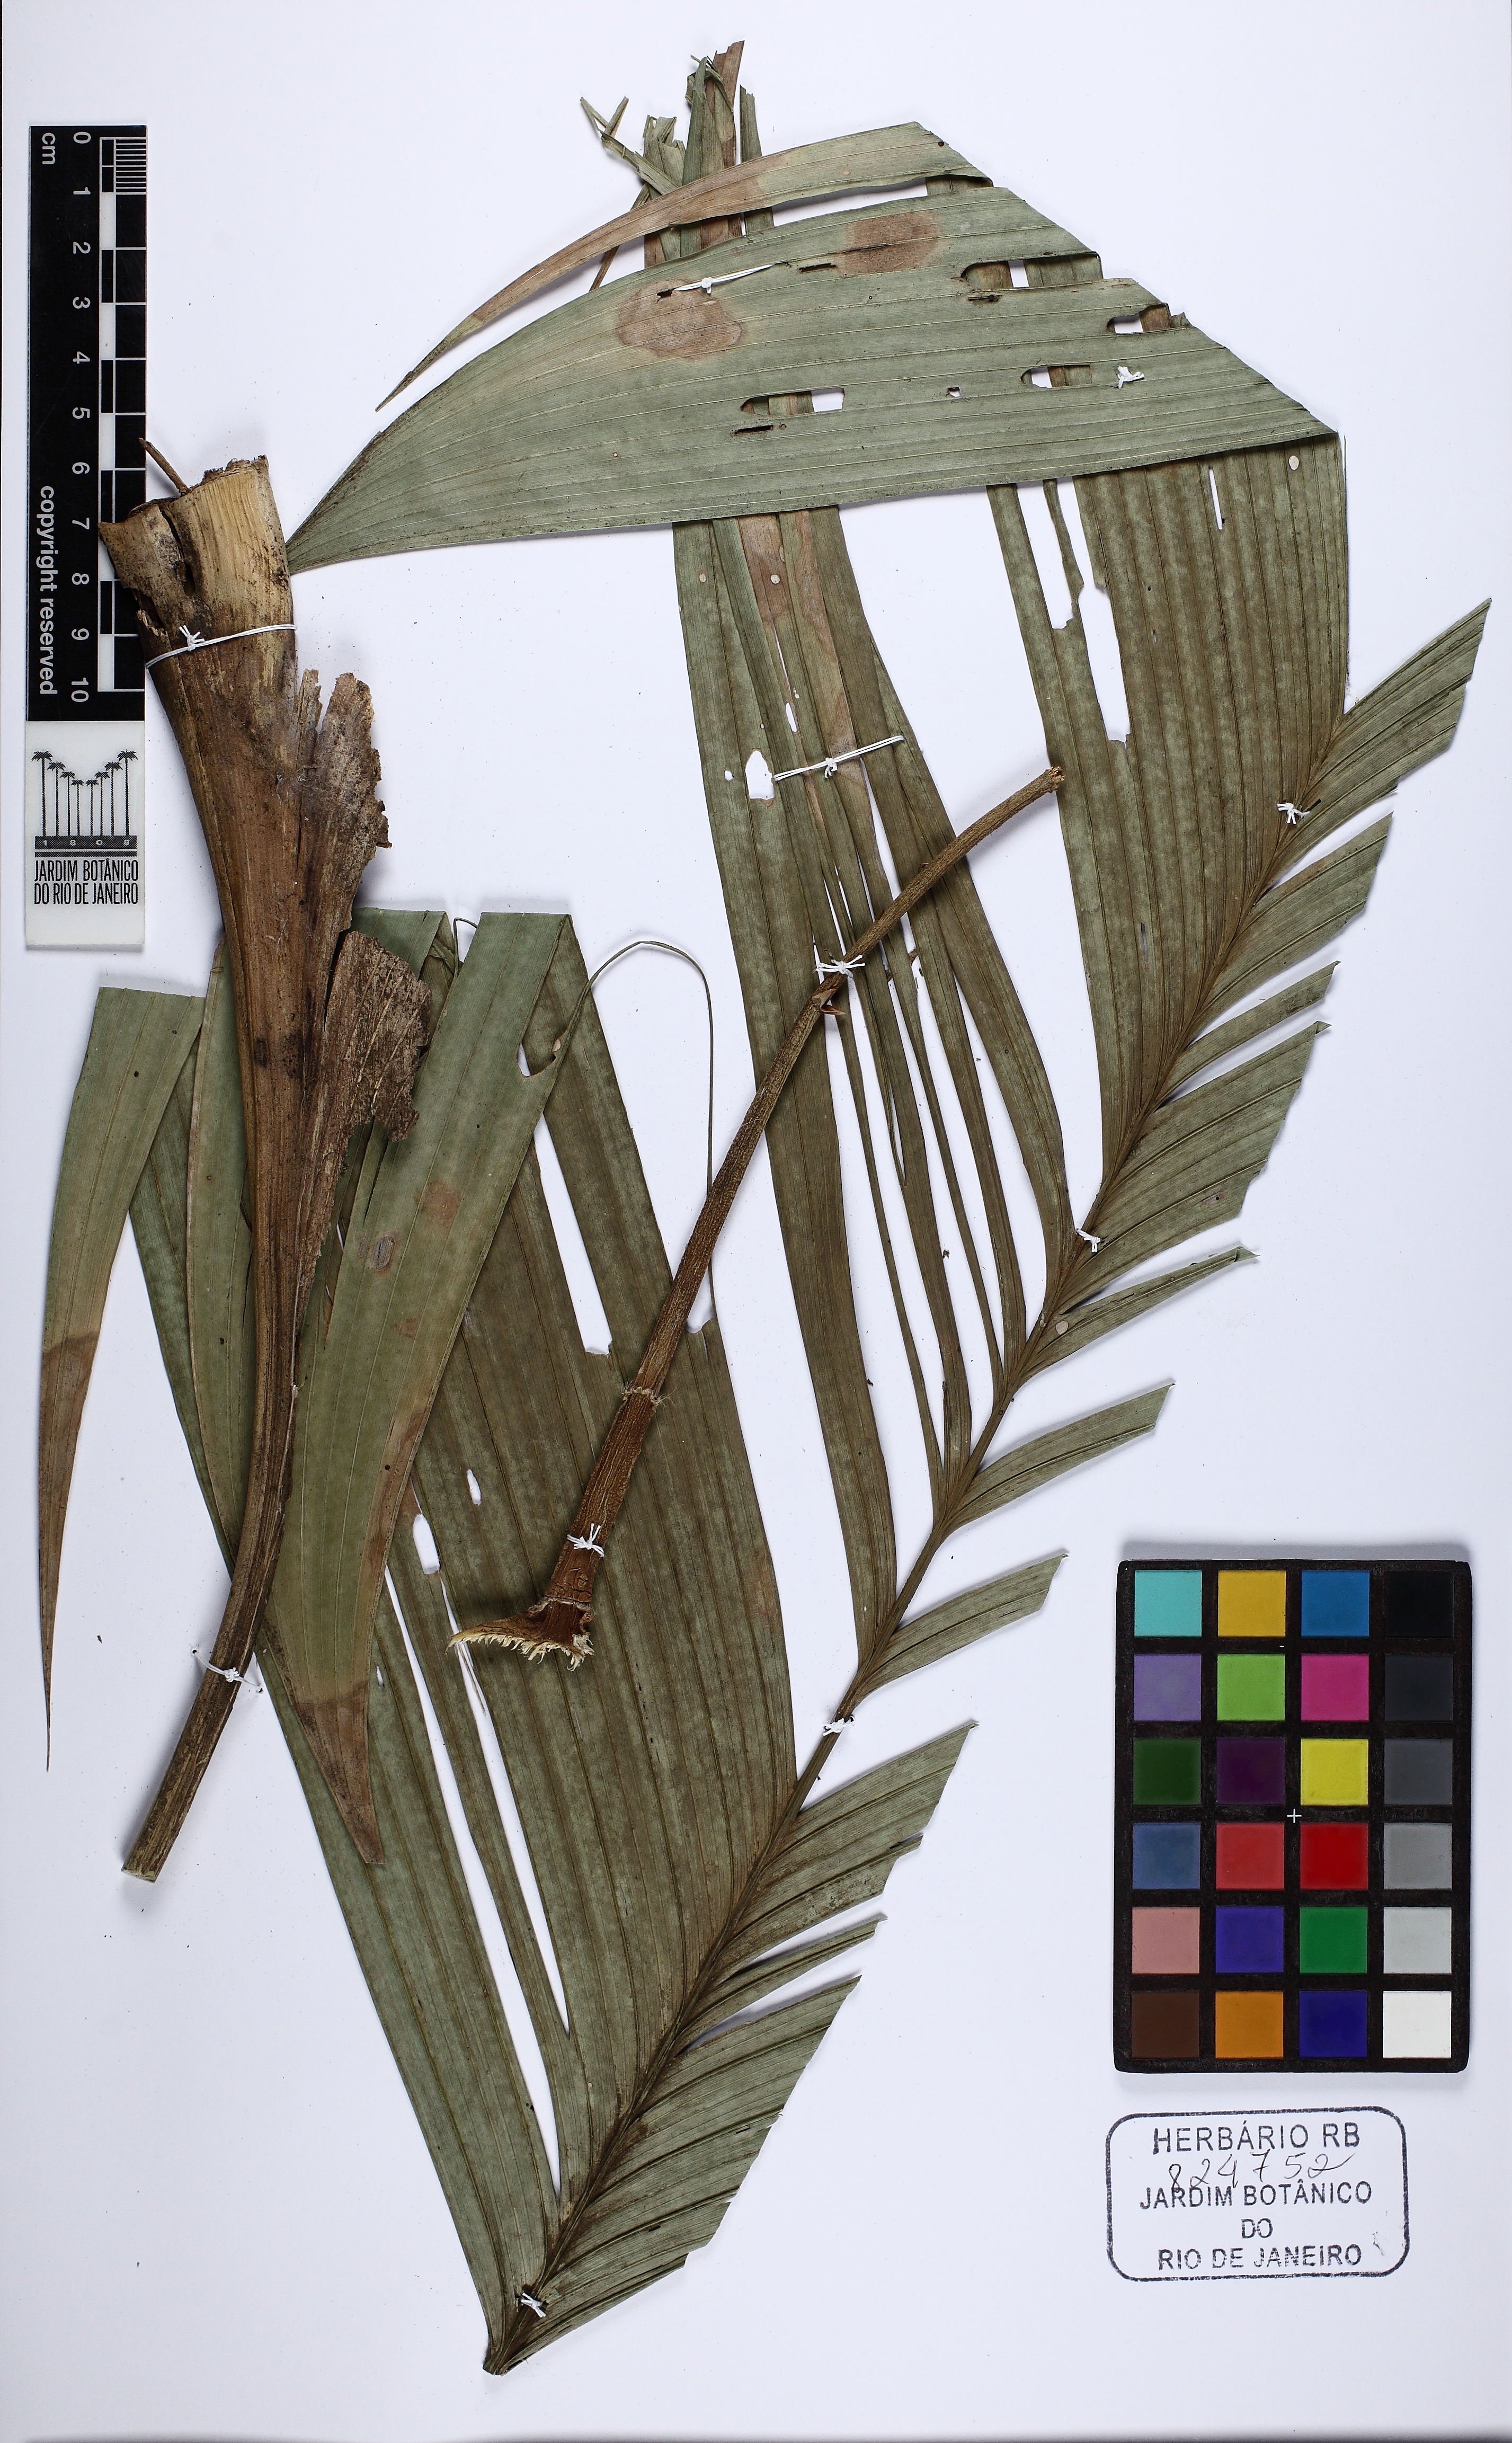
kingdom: Plantae
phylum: Tracheophyta
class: Liliopsida
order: Arecales
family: Arecaceae
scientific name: Arecaceae
